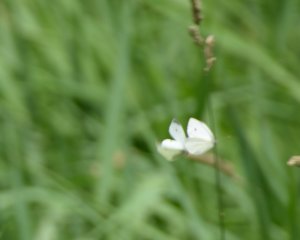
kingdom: Animalia
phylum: Arthropoda
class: Insecta
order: Lepidoptera
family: Pieridae
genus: Pieris
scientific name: Pieris rapae
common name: Cabbage White
